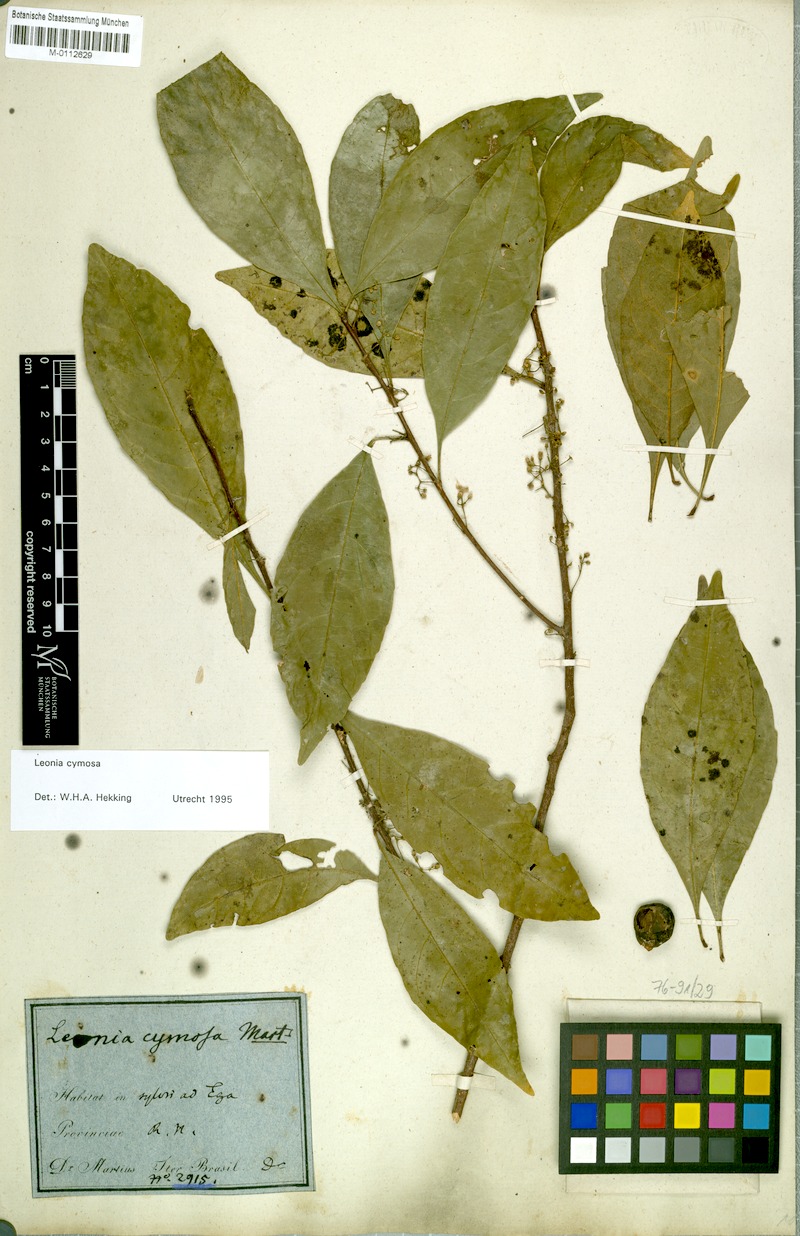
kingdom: Plantae
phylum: Tracheophyta
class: Magnoliopsida
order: Malpighiales
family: Violaceae
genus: Leonia
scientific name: Leonia cymosa
